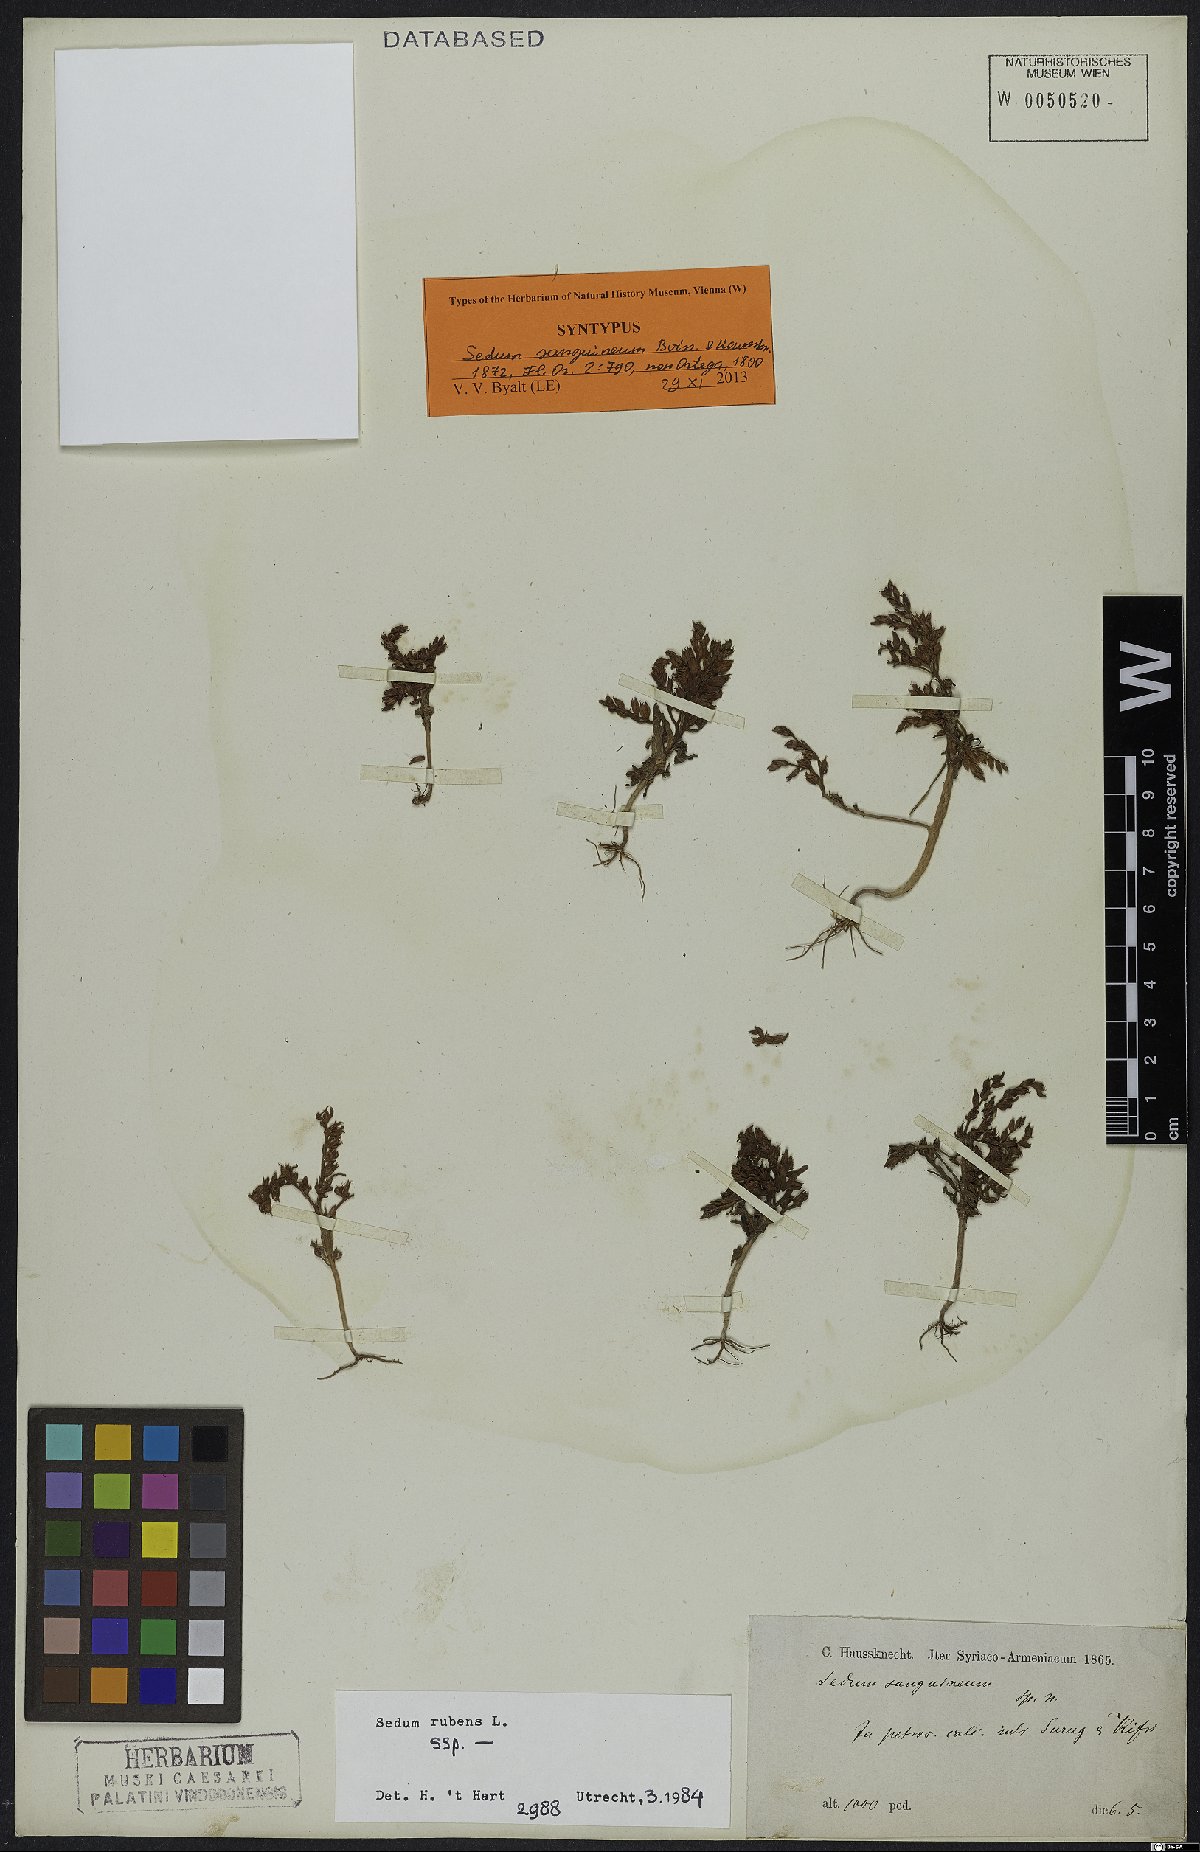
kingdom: Plantae
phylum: Tracheophyta
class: Magnoliopsida
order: Saxifragales
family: Crassulaceae
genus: Sedum
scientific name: Sedum rubens
